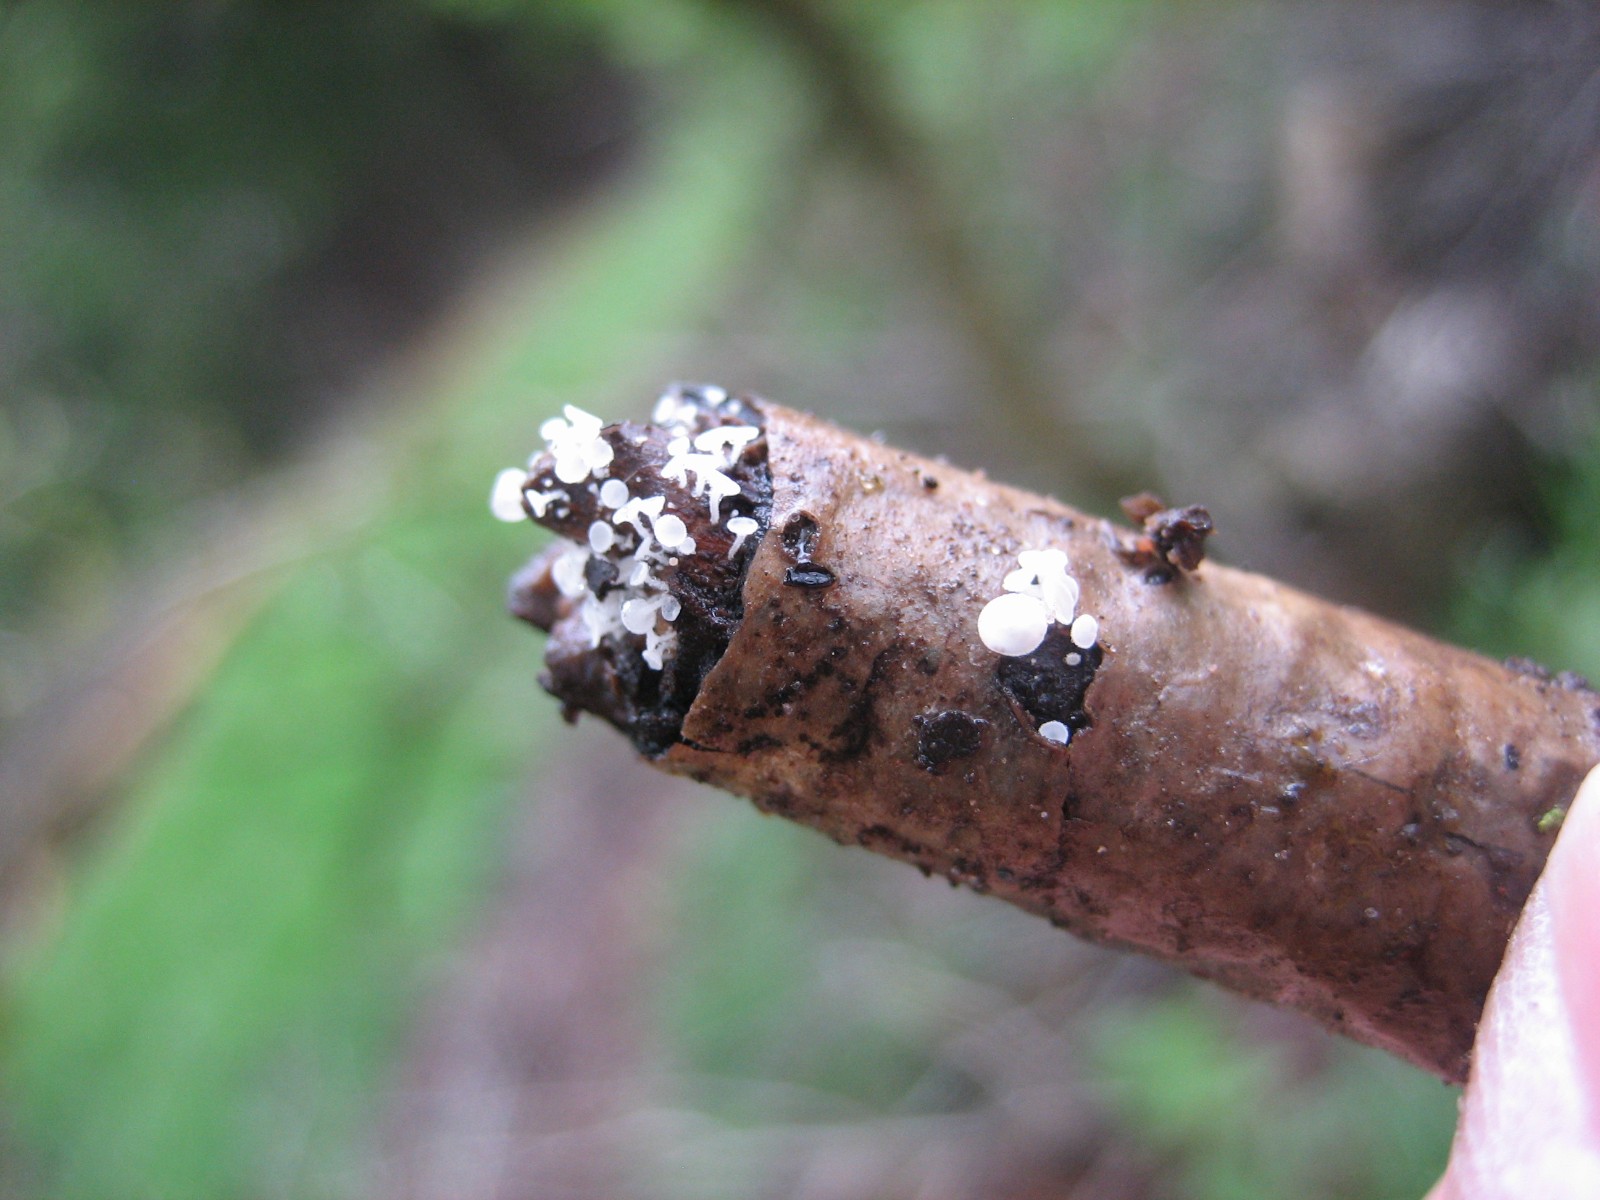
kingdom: Fungi
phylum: Ascomycota
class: Leotiomycetes
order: Helotiales
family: Lachnaceae
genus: Lachnum
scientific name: Lachnum
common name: frynseskive
